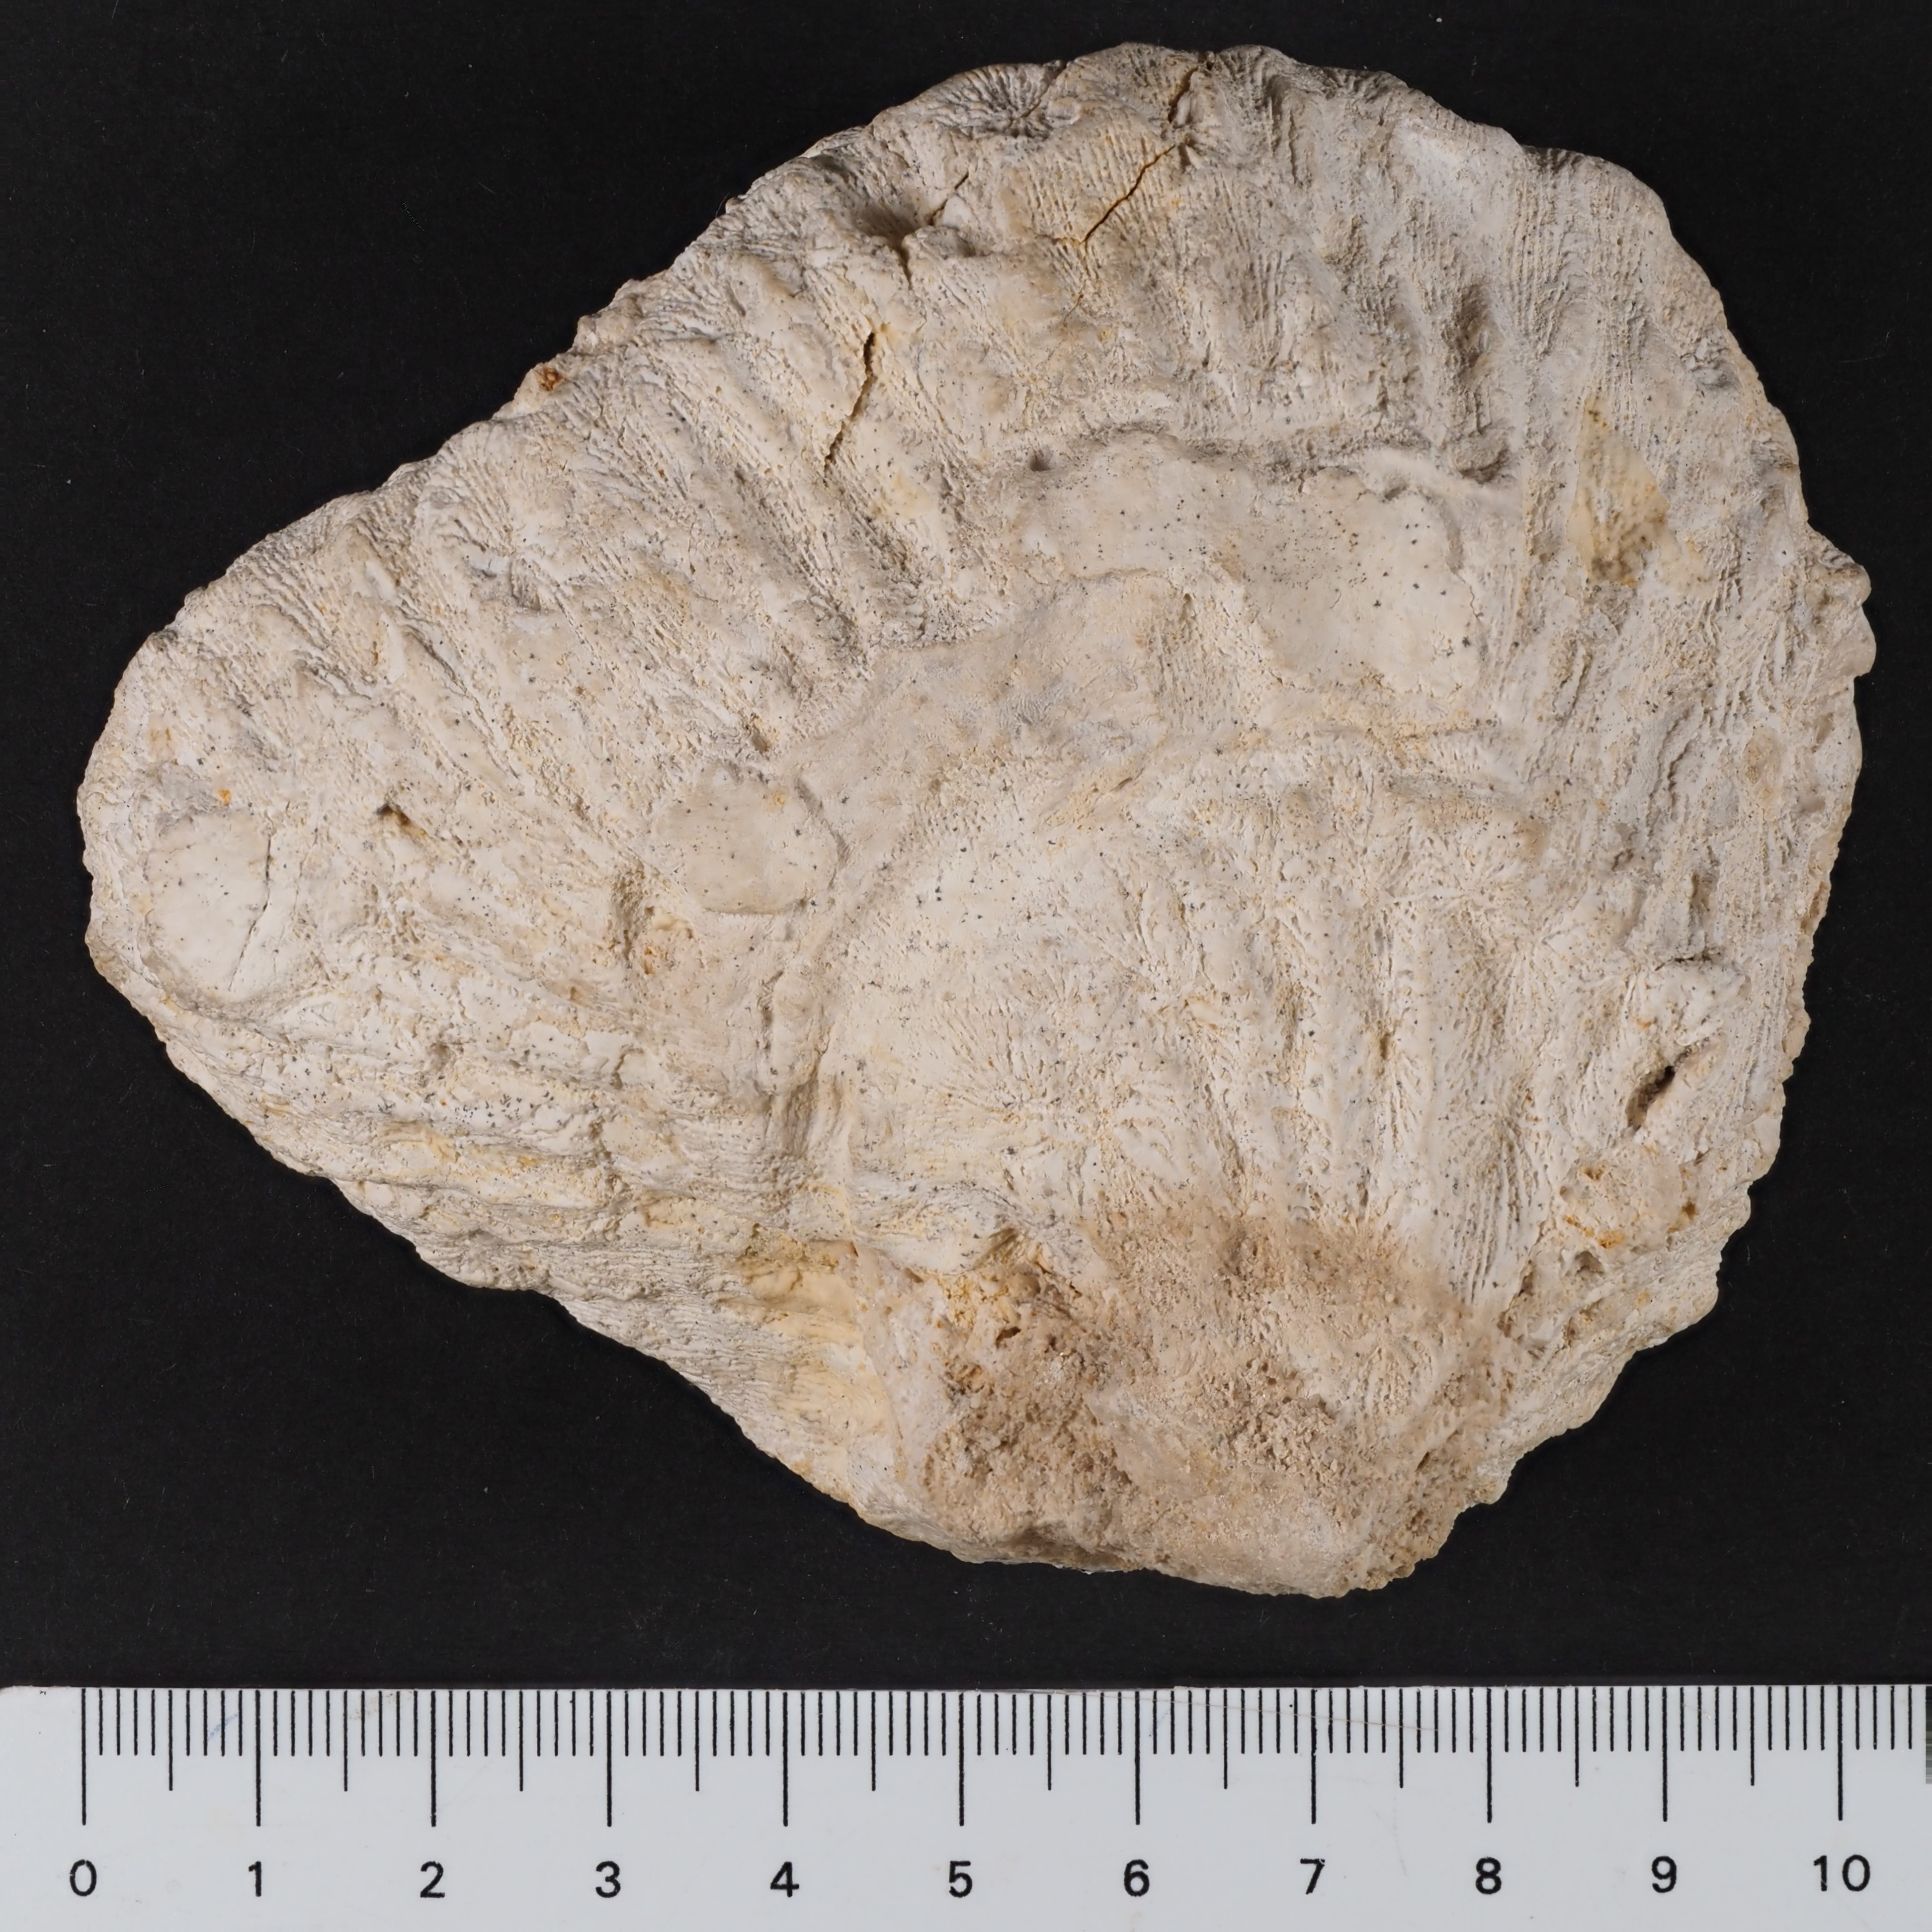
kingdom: Animalia
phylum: Cnidaria
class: Anthozoa
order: Scleractinia
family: Thecosmiliidae
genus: Isastrea
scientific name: Isastrea
